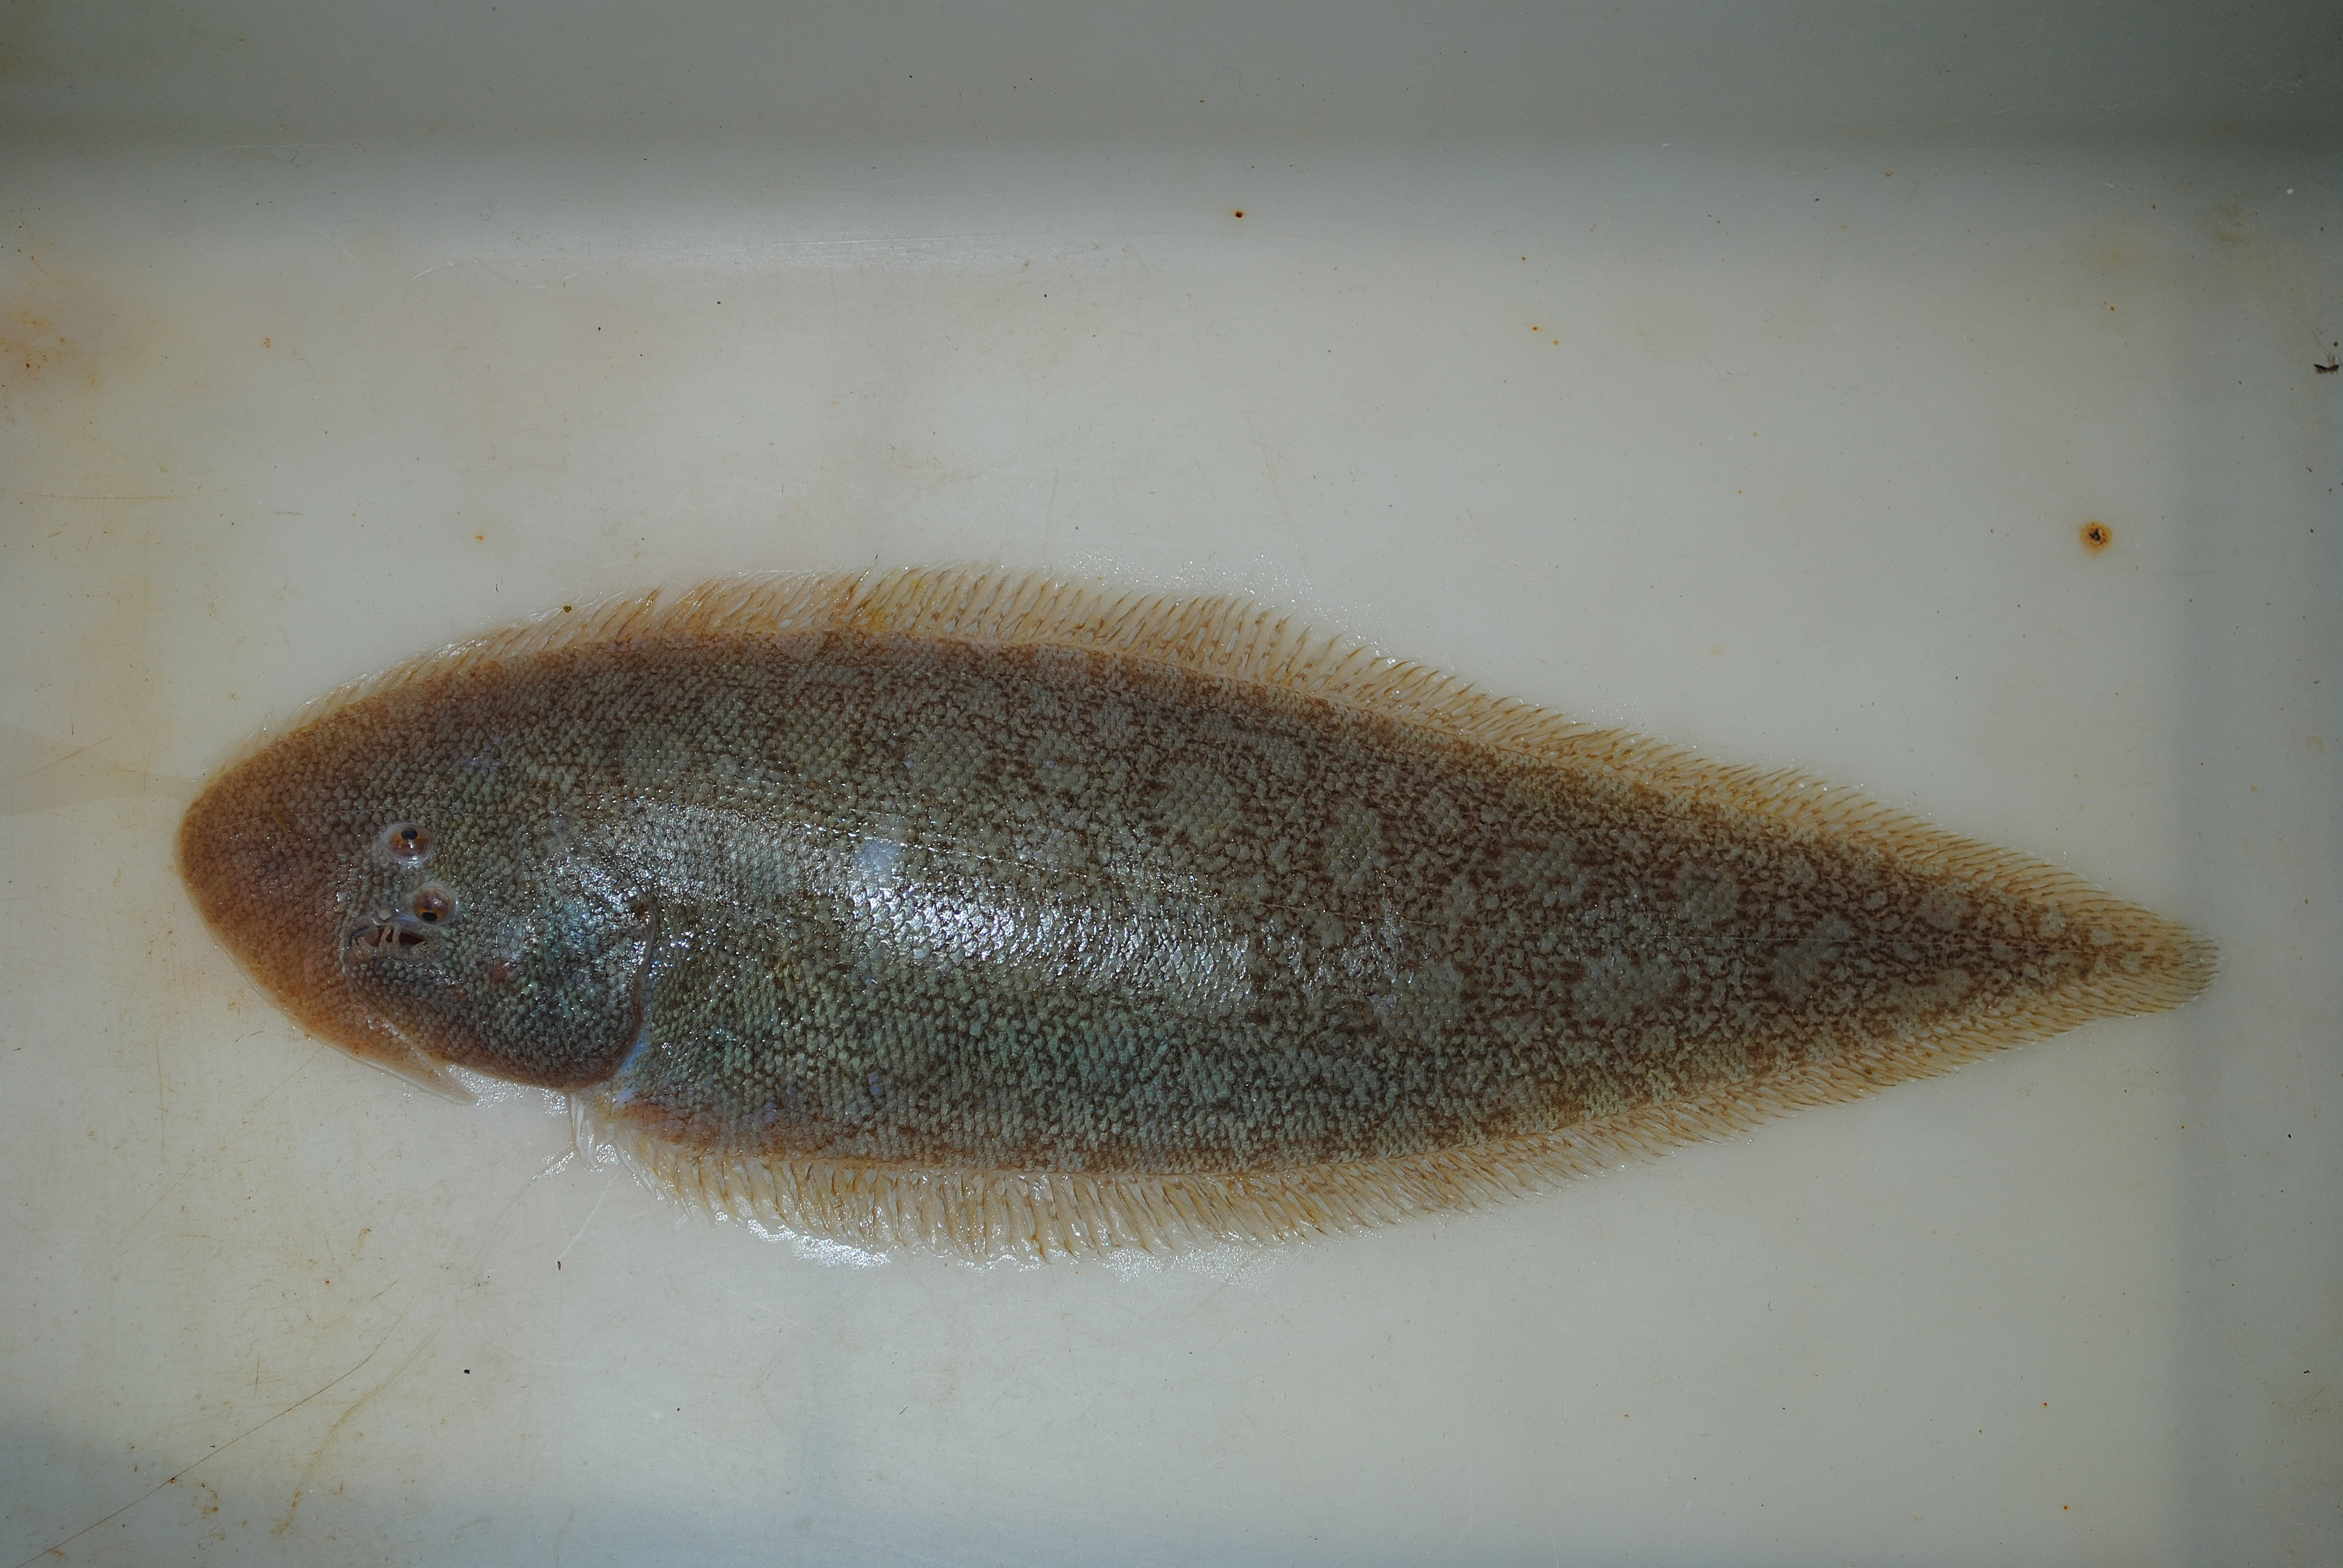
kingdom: Animalia
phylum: Chordata
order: Pleuronectiformes
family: Cynoglossidae
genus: Paraplagusia
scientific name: Paraplagusia bilineata
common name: Doublelined tonguesole
